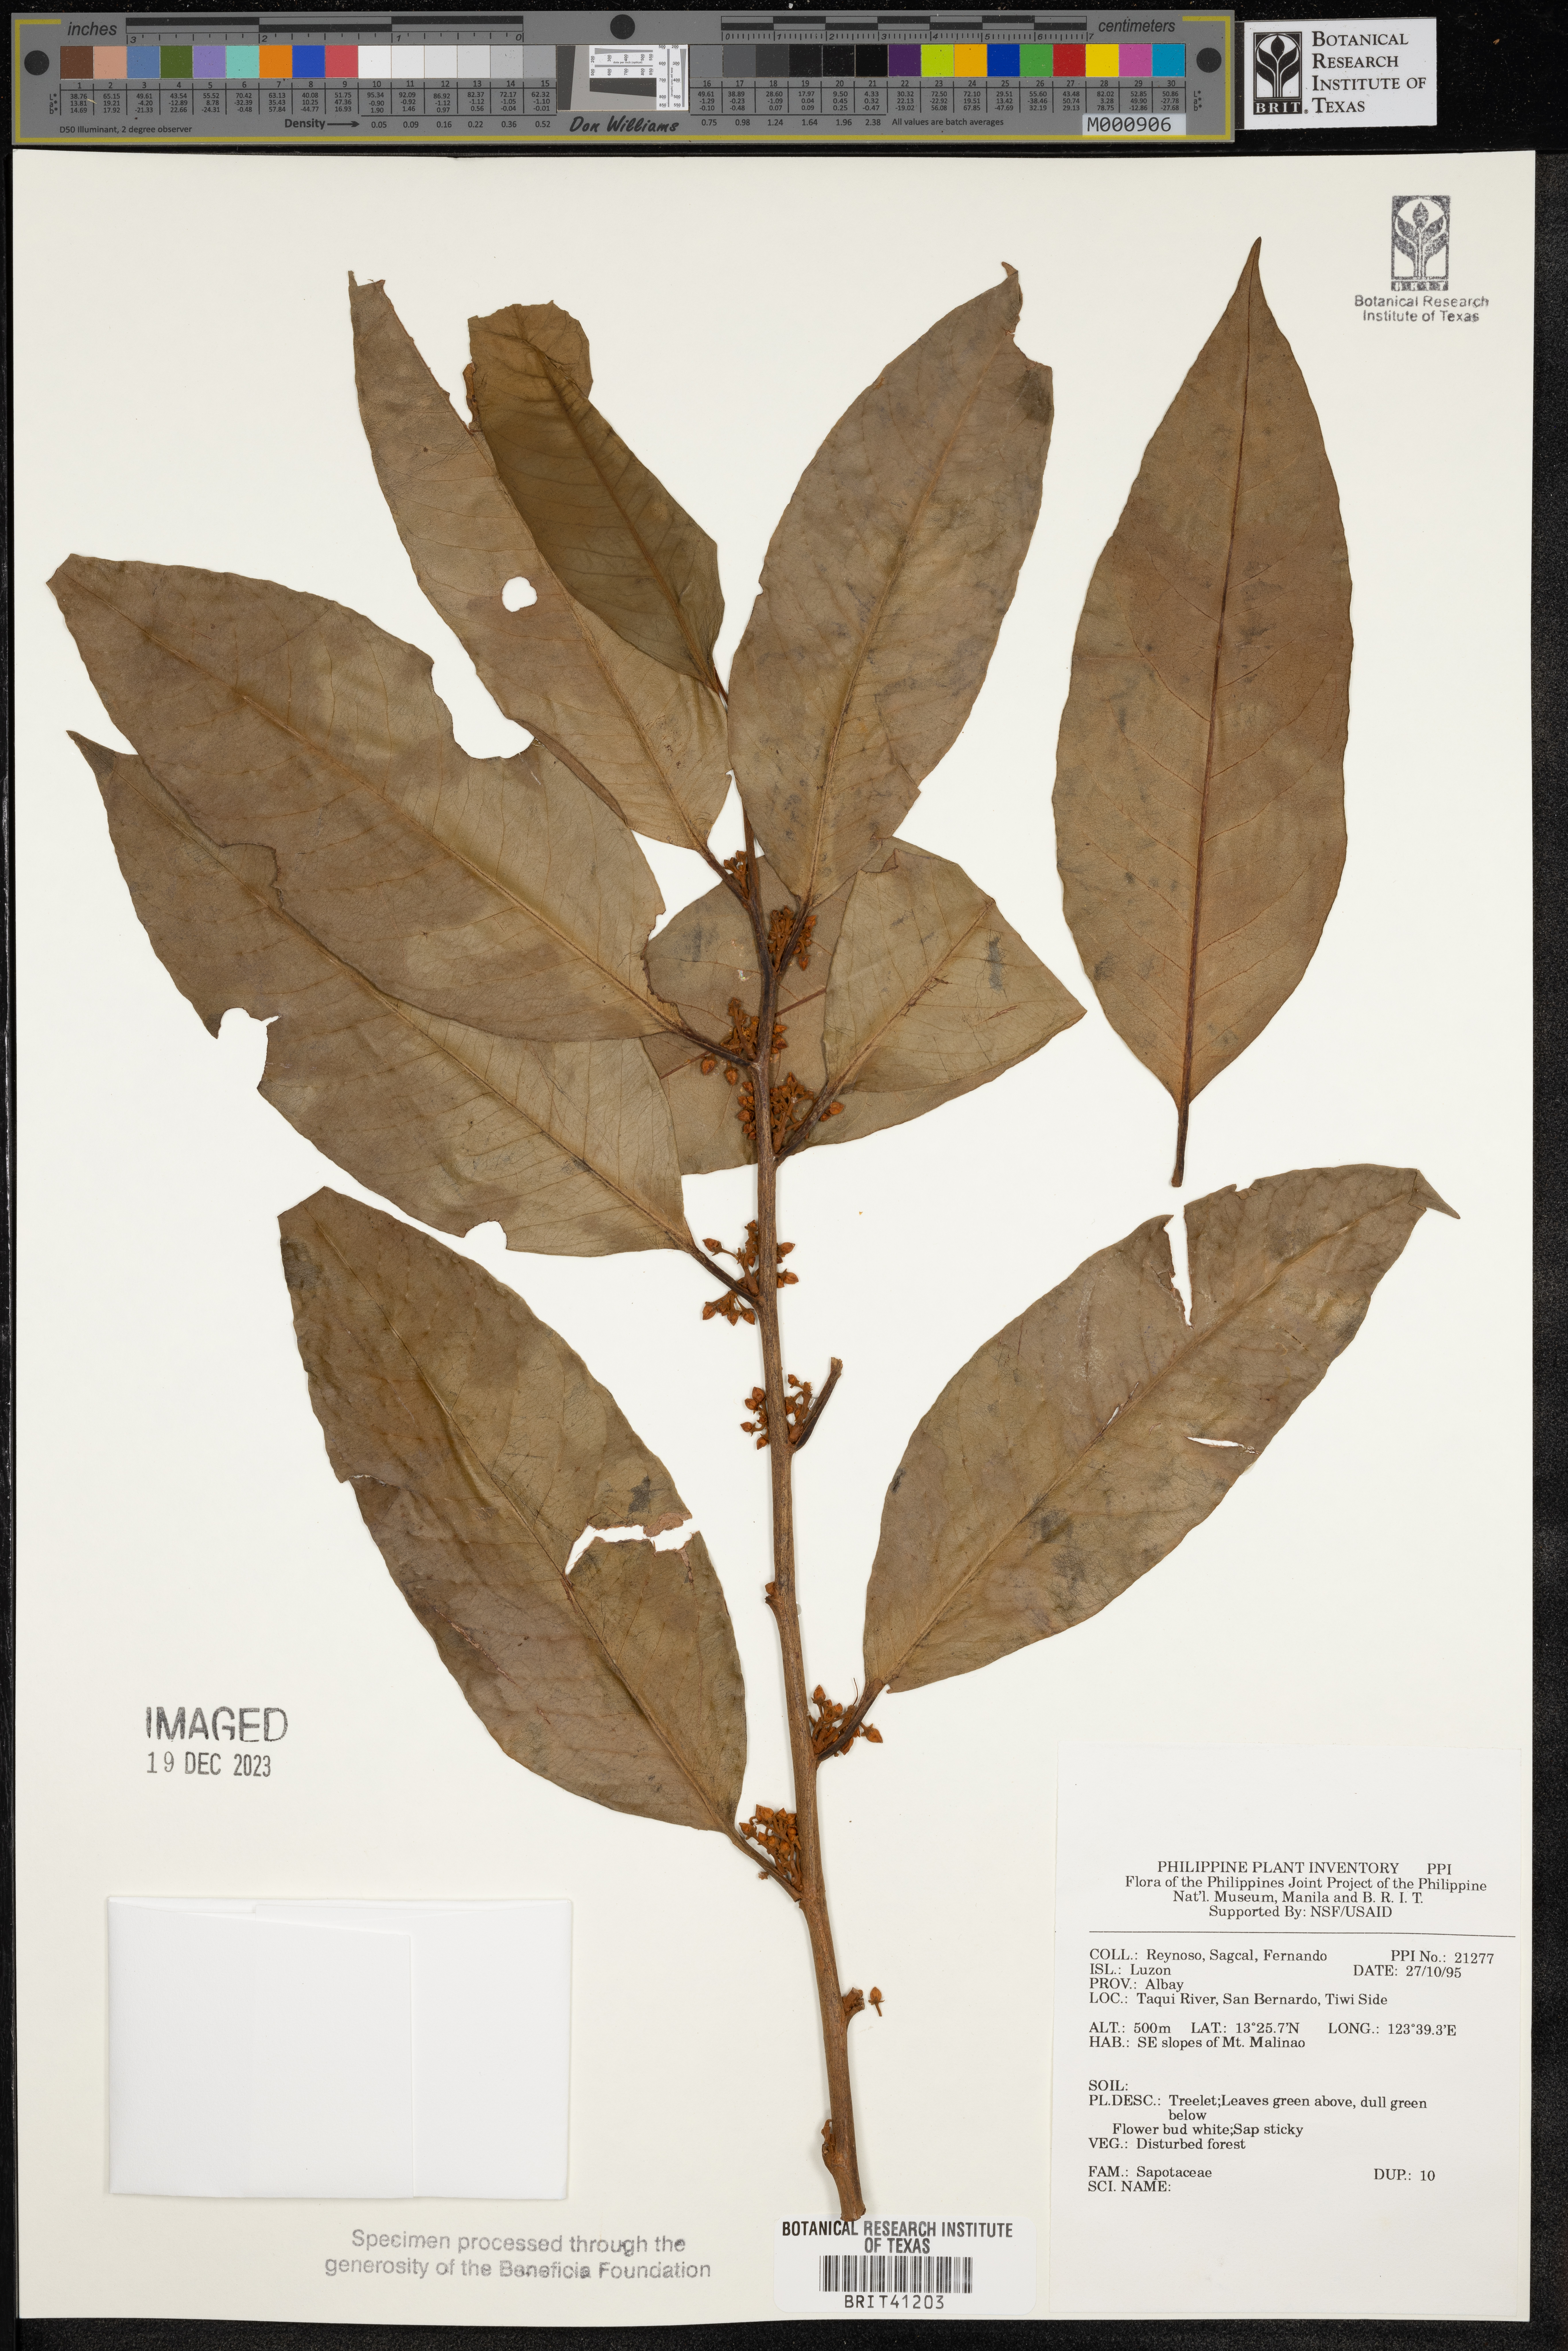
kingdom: Plantae
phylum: Tracheophyta
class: Magnoliopsida
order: Ericales
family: Sapotaceae
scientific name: Sapotaceae
